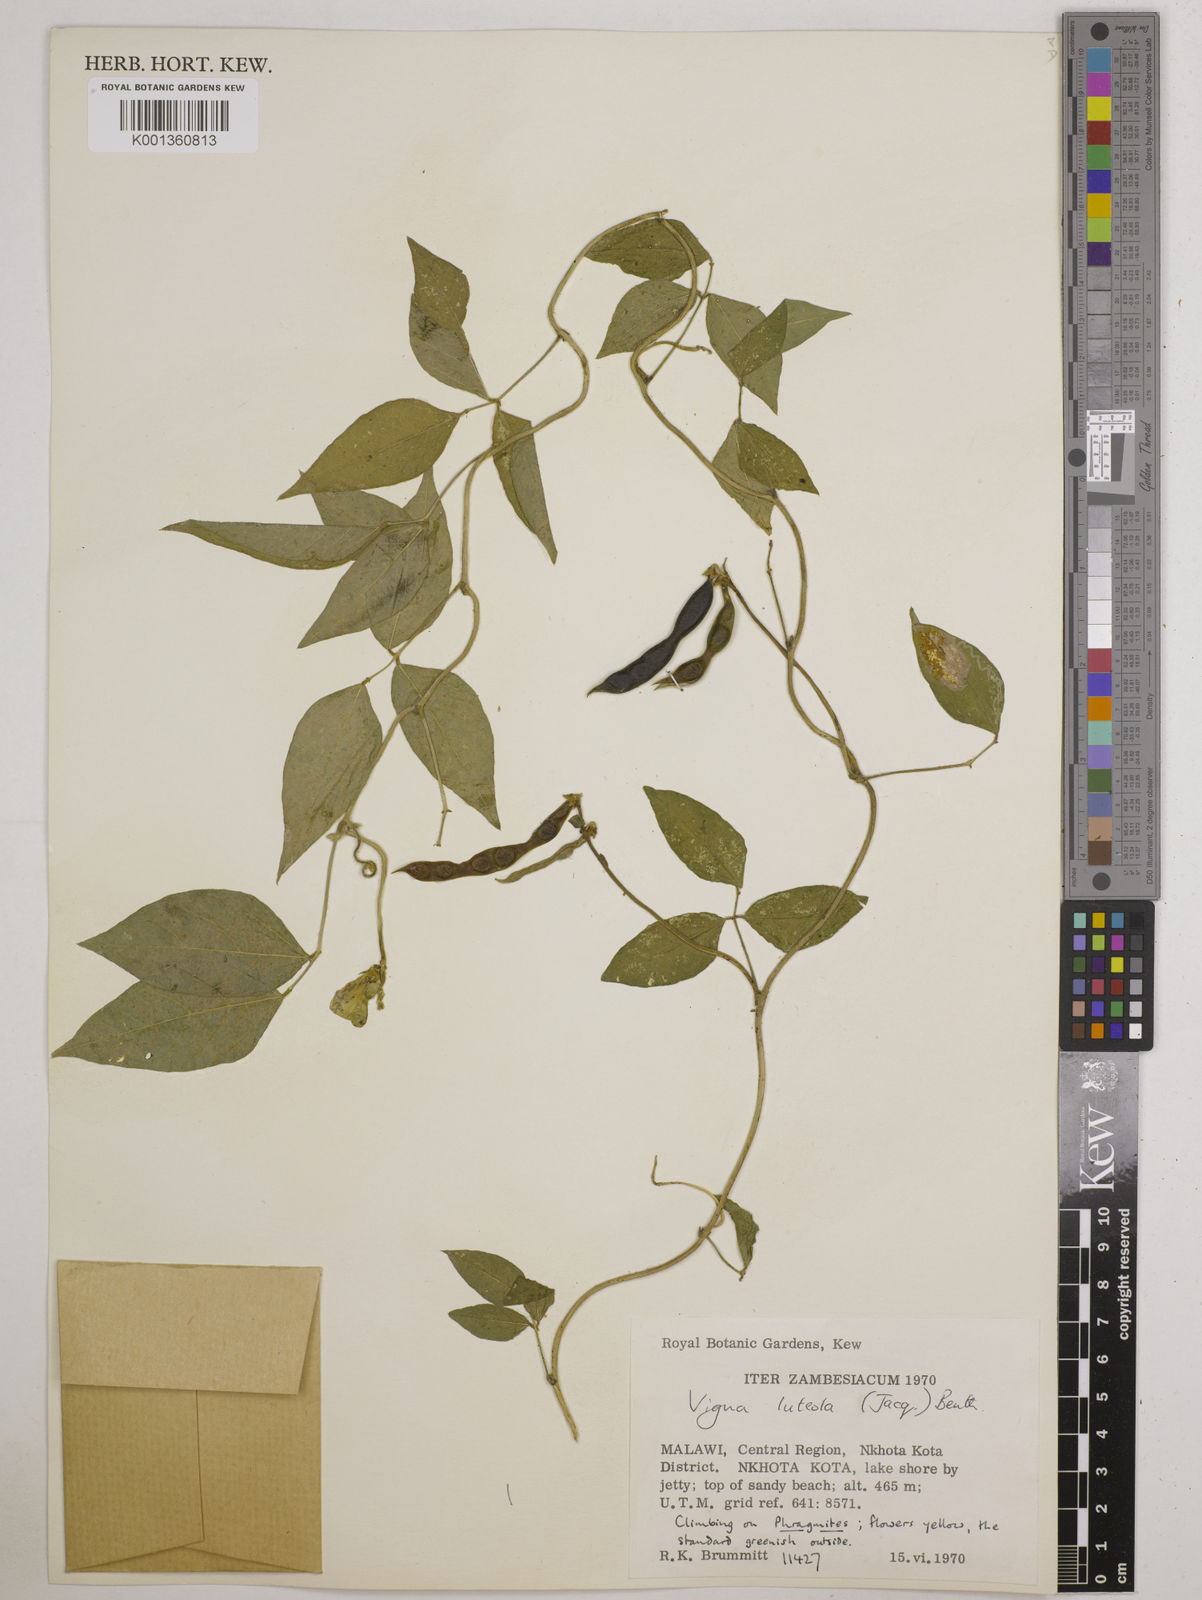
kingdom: Plantae
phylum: Tracheophyta
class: Magnoliopsida
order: Fabales
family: Fabaceae
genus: Vigna
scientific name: Vigna luteola
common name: Hairypod cowpea
